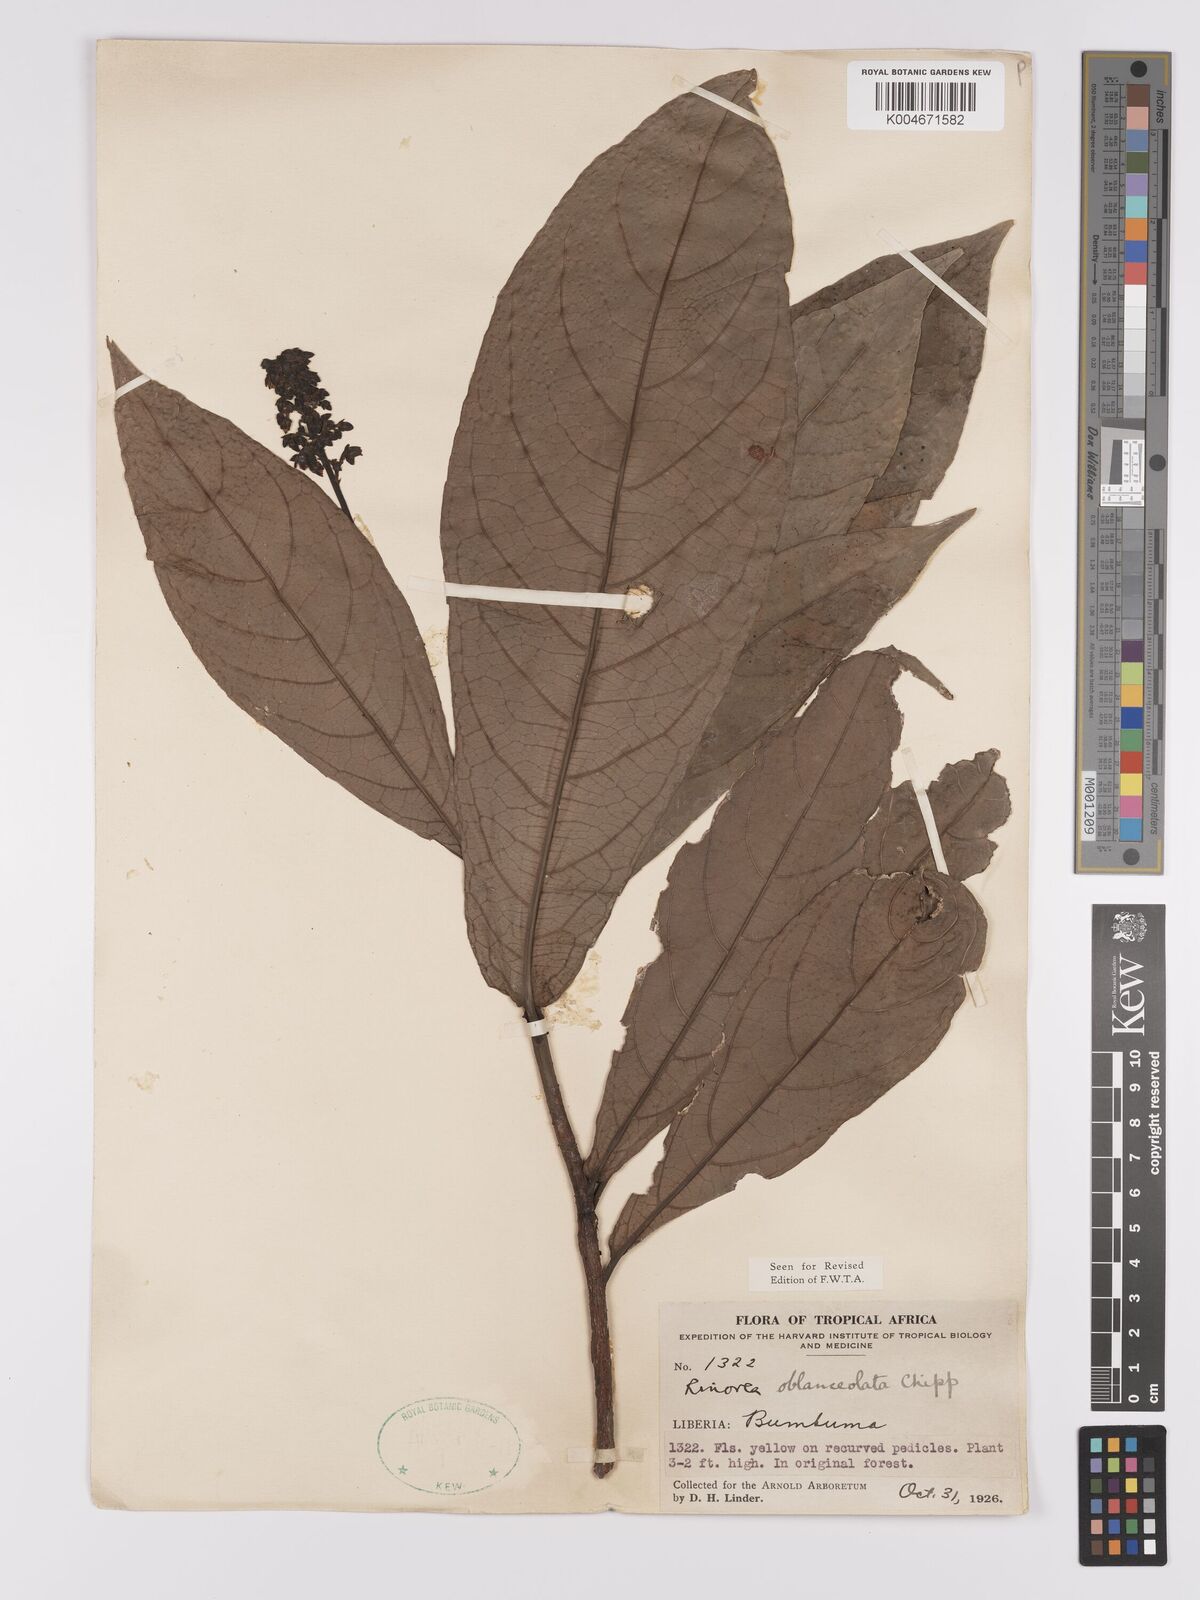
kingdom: Plantae
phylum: Tracheophyta
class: Magnoliopsida
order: Malpighiales
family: Violaceae
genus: Rinorea
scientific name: Rinorea oblanceolata
